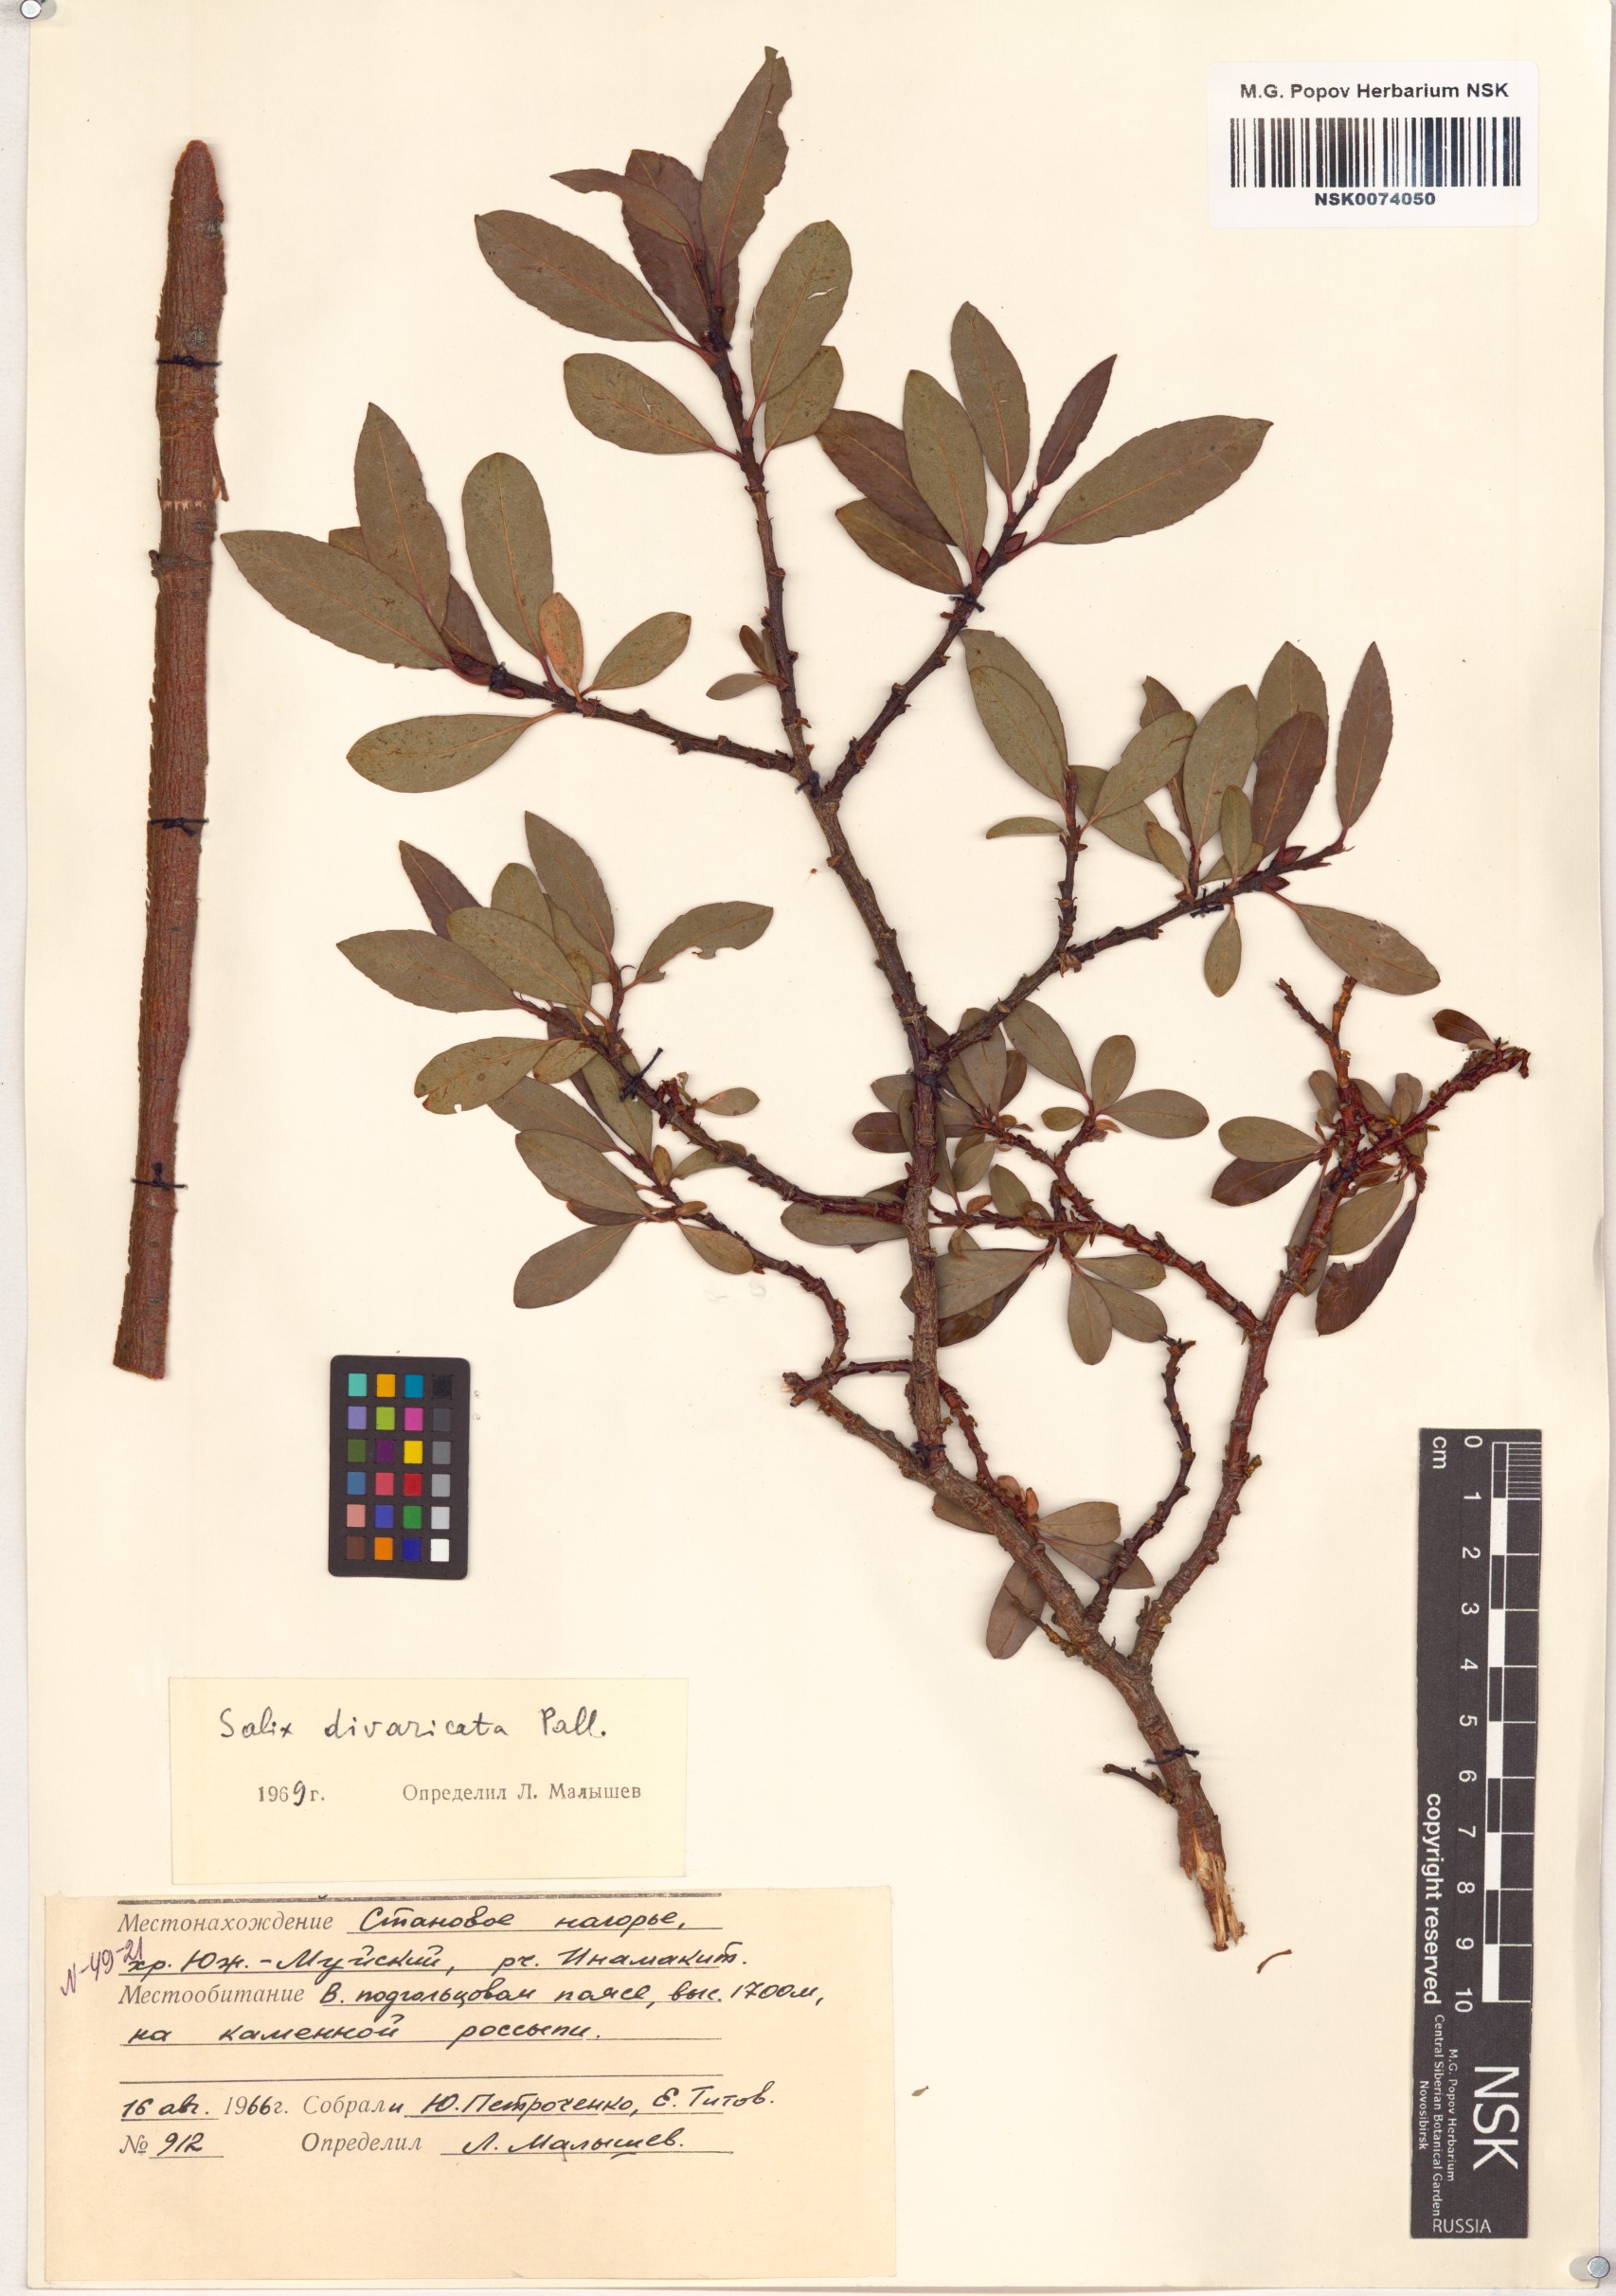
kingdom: Plantae
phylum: Tracheophyta
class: Magnoliopsida
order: Malpighiales
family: Salicaceae
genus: Salix
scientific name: Salix divaricata
